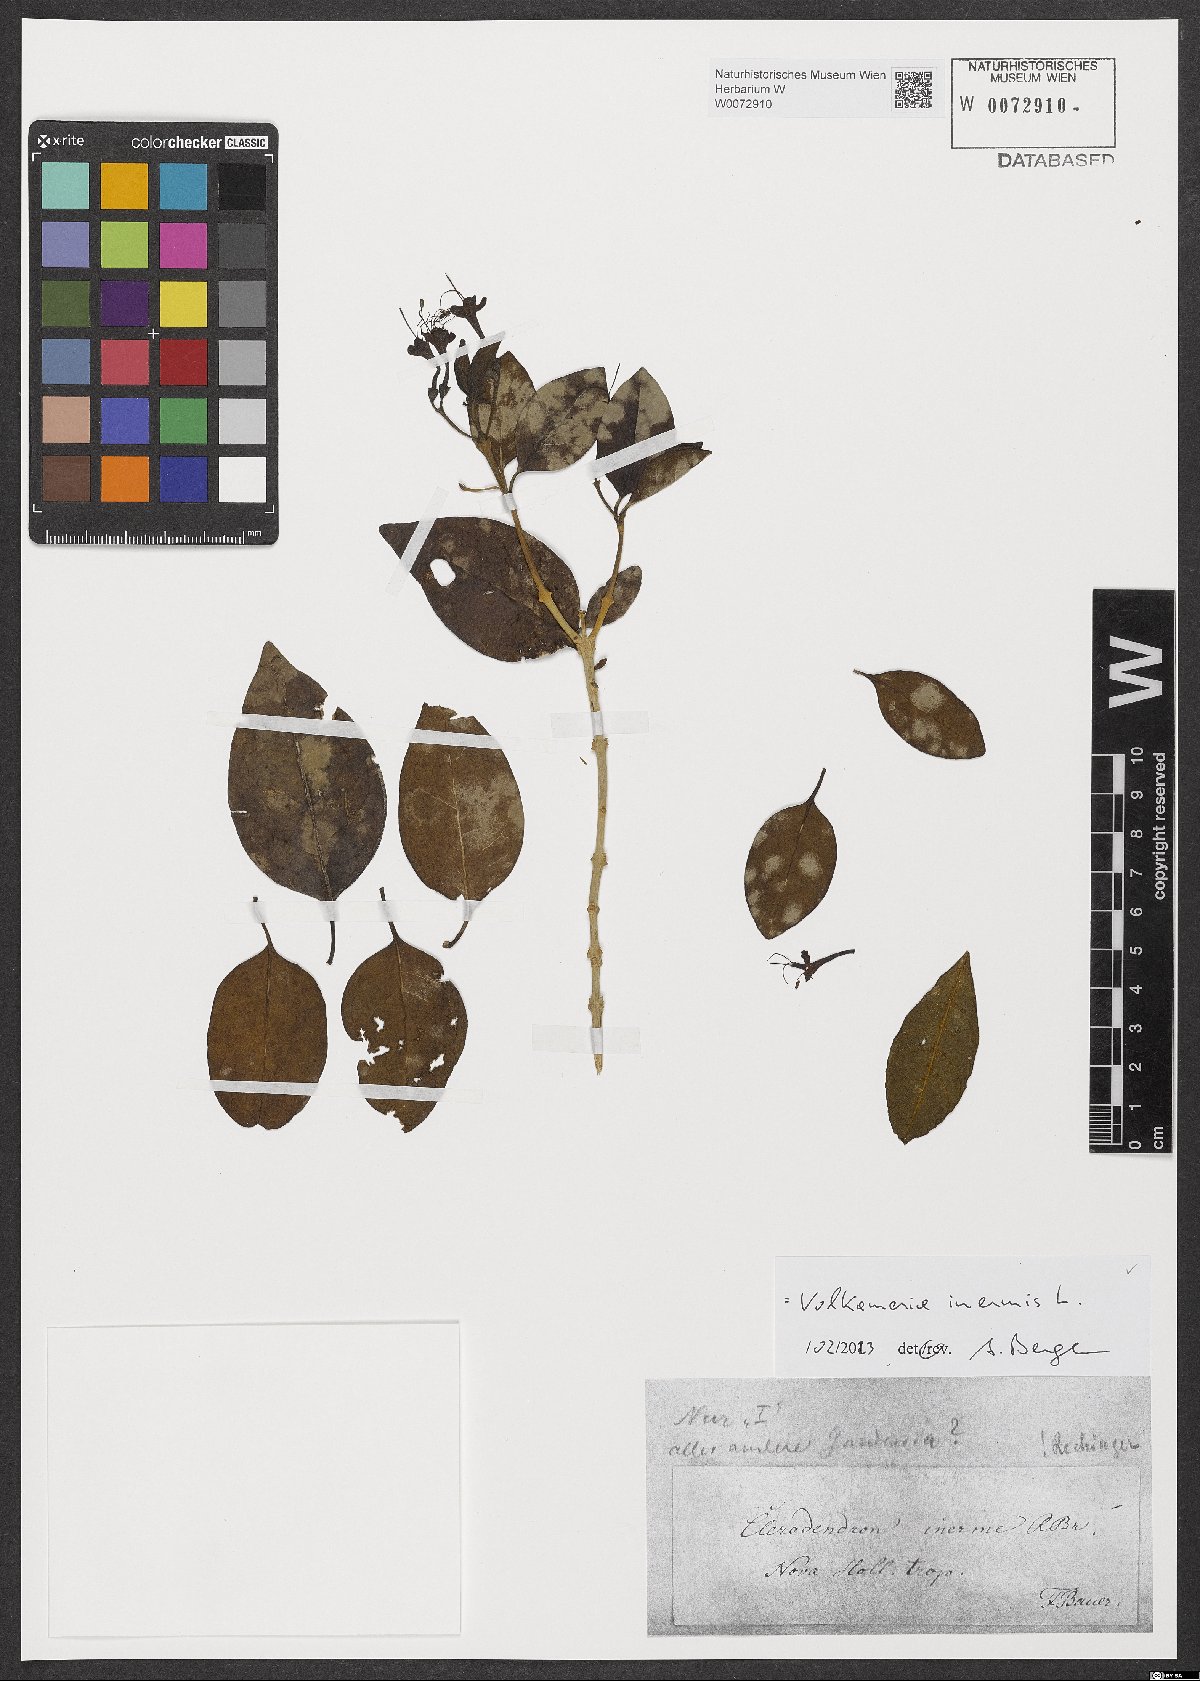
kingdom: Plantae
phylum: Tracheophyta
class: Magnoliopsida
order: Lamiales
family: Lamiaceae
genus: Volkameria
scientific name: Volkameria inermis
